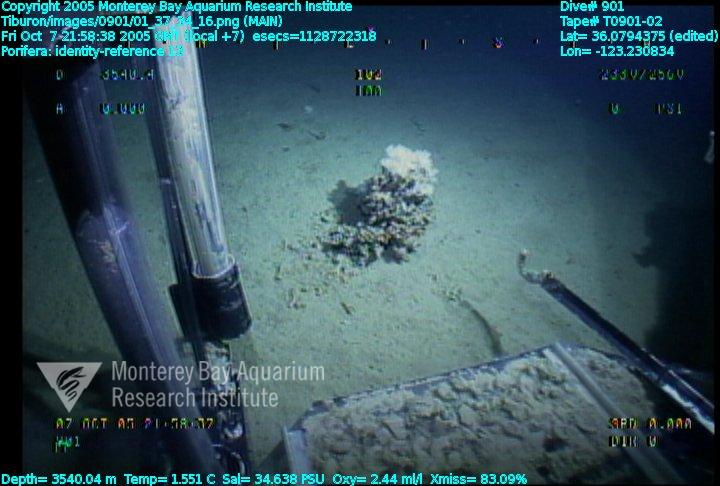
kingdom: Animalia
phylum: Porifera
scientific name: Porifera
